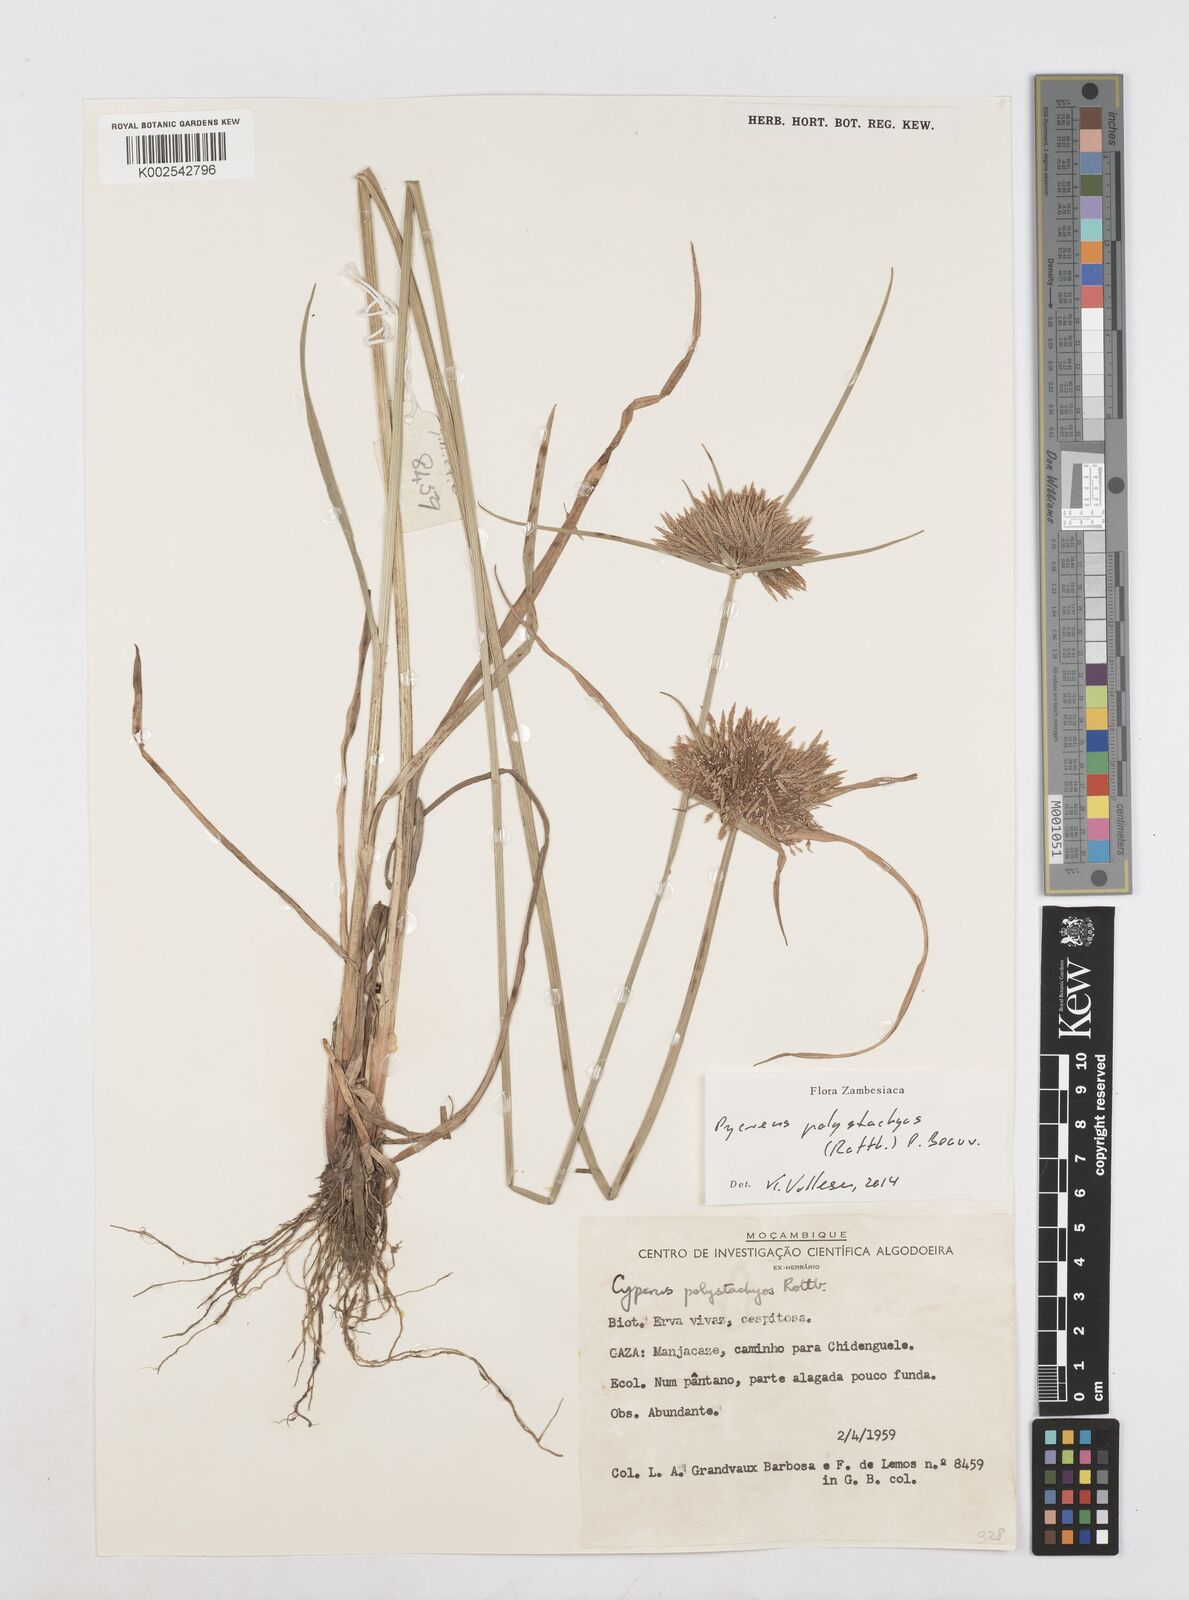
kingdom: Plantae
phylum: Tracheophyta
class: Liliopsida
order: Poales
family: Cyperaceae
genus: Cyperus
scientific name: Cyperus polystachyos
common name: Bunchy flat sedge
